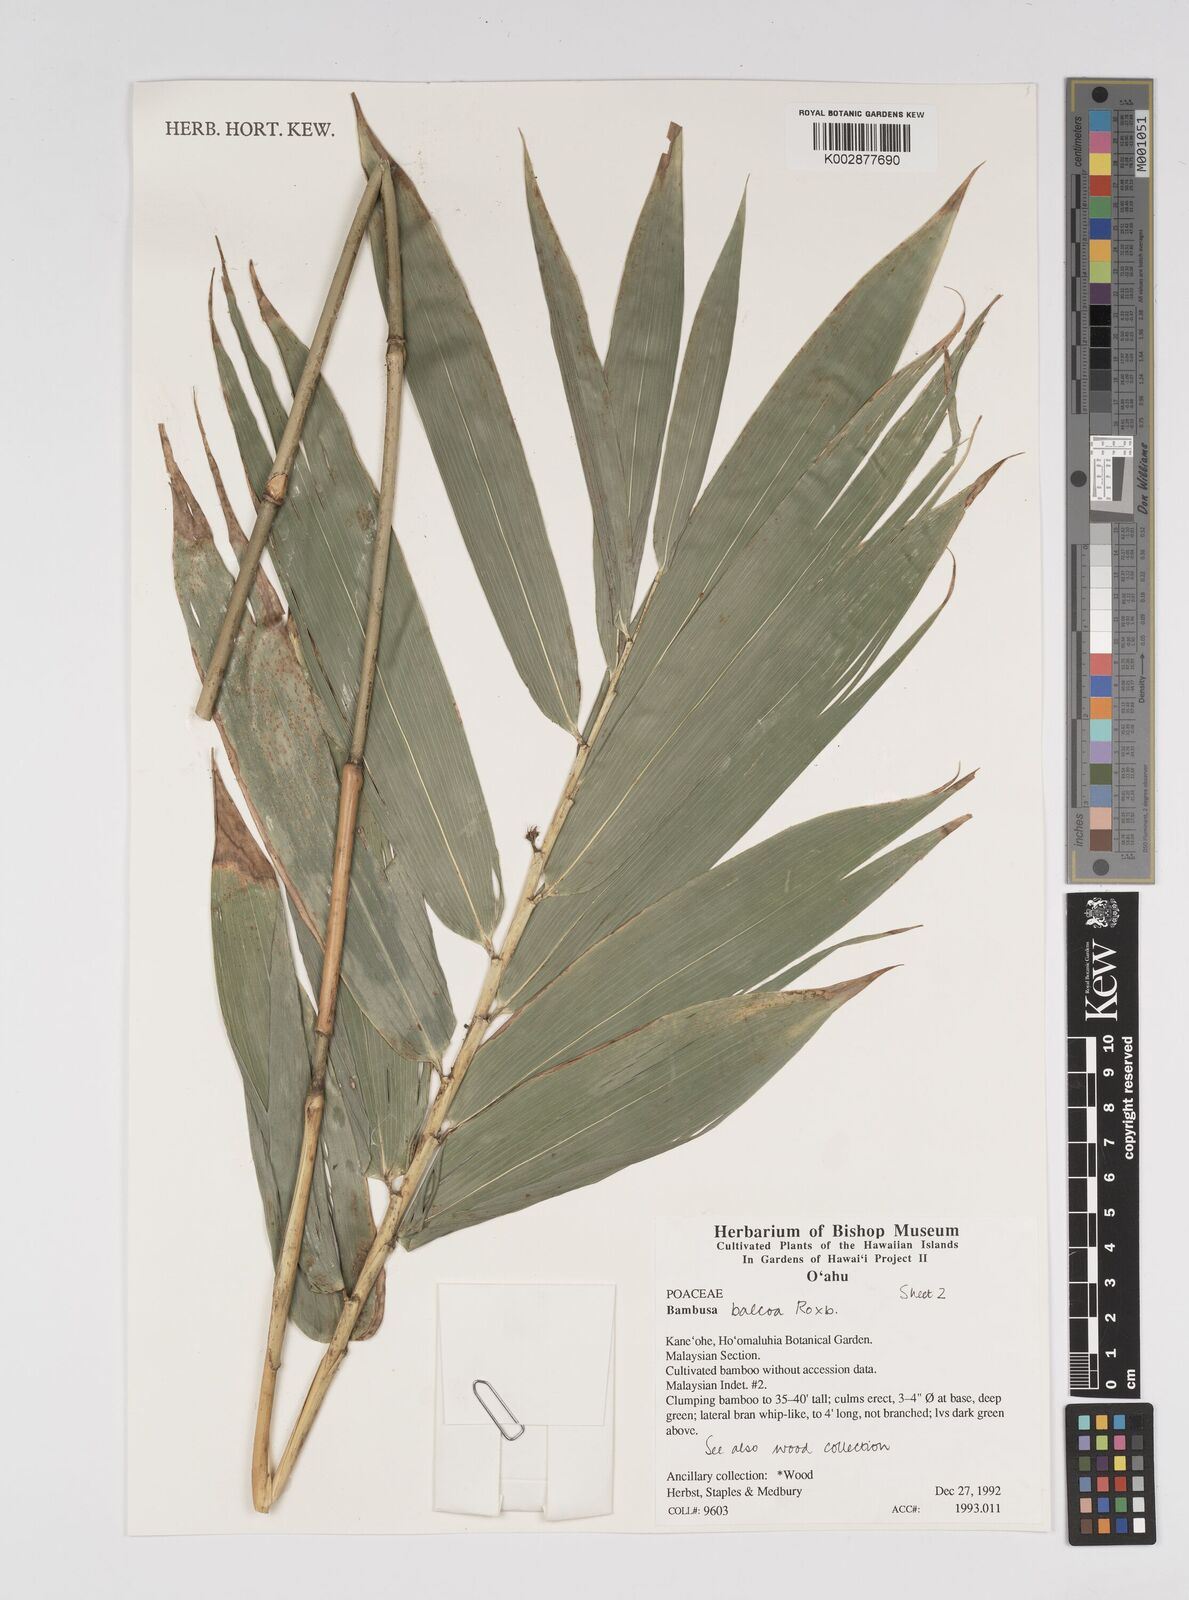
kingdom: Plantae
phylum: Tracheophyta
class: Liliopsida
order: Poales
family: Poaceae
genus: Bambusa
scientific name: Bambusa balcooa
